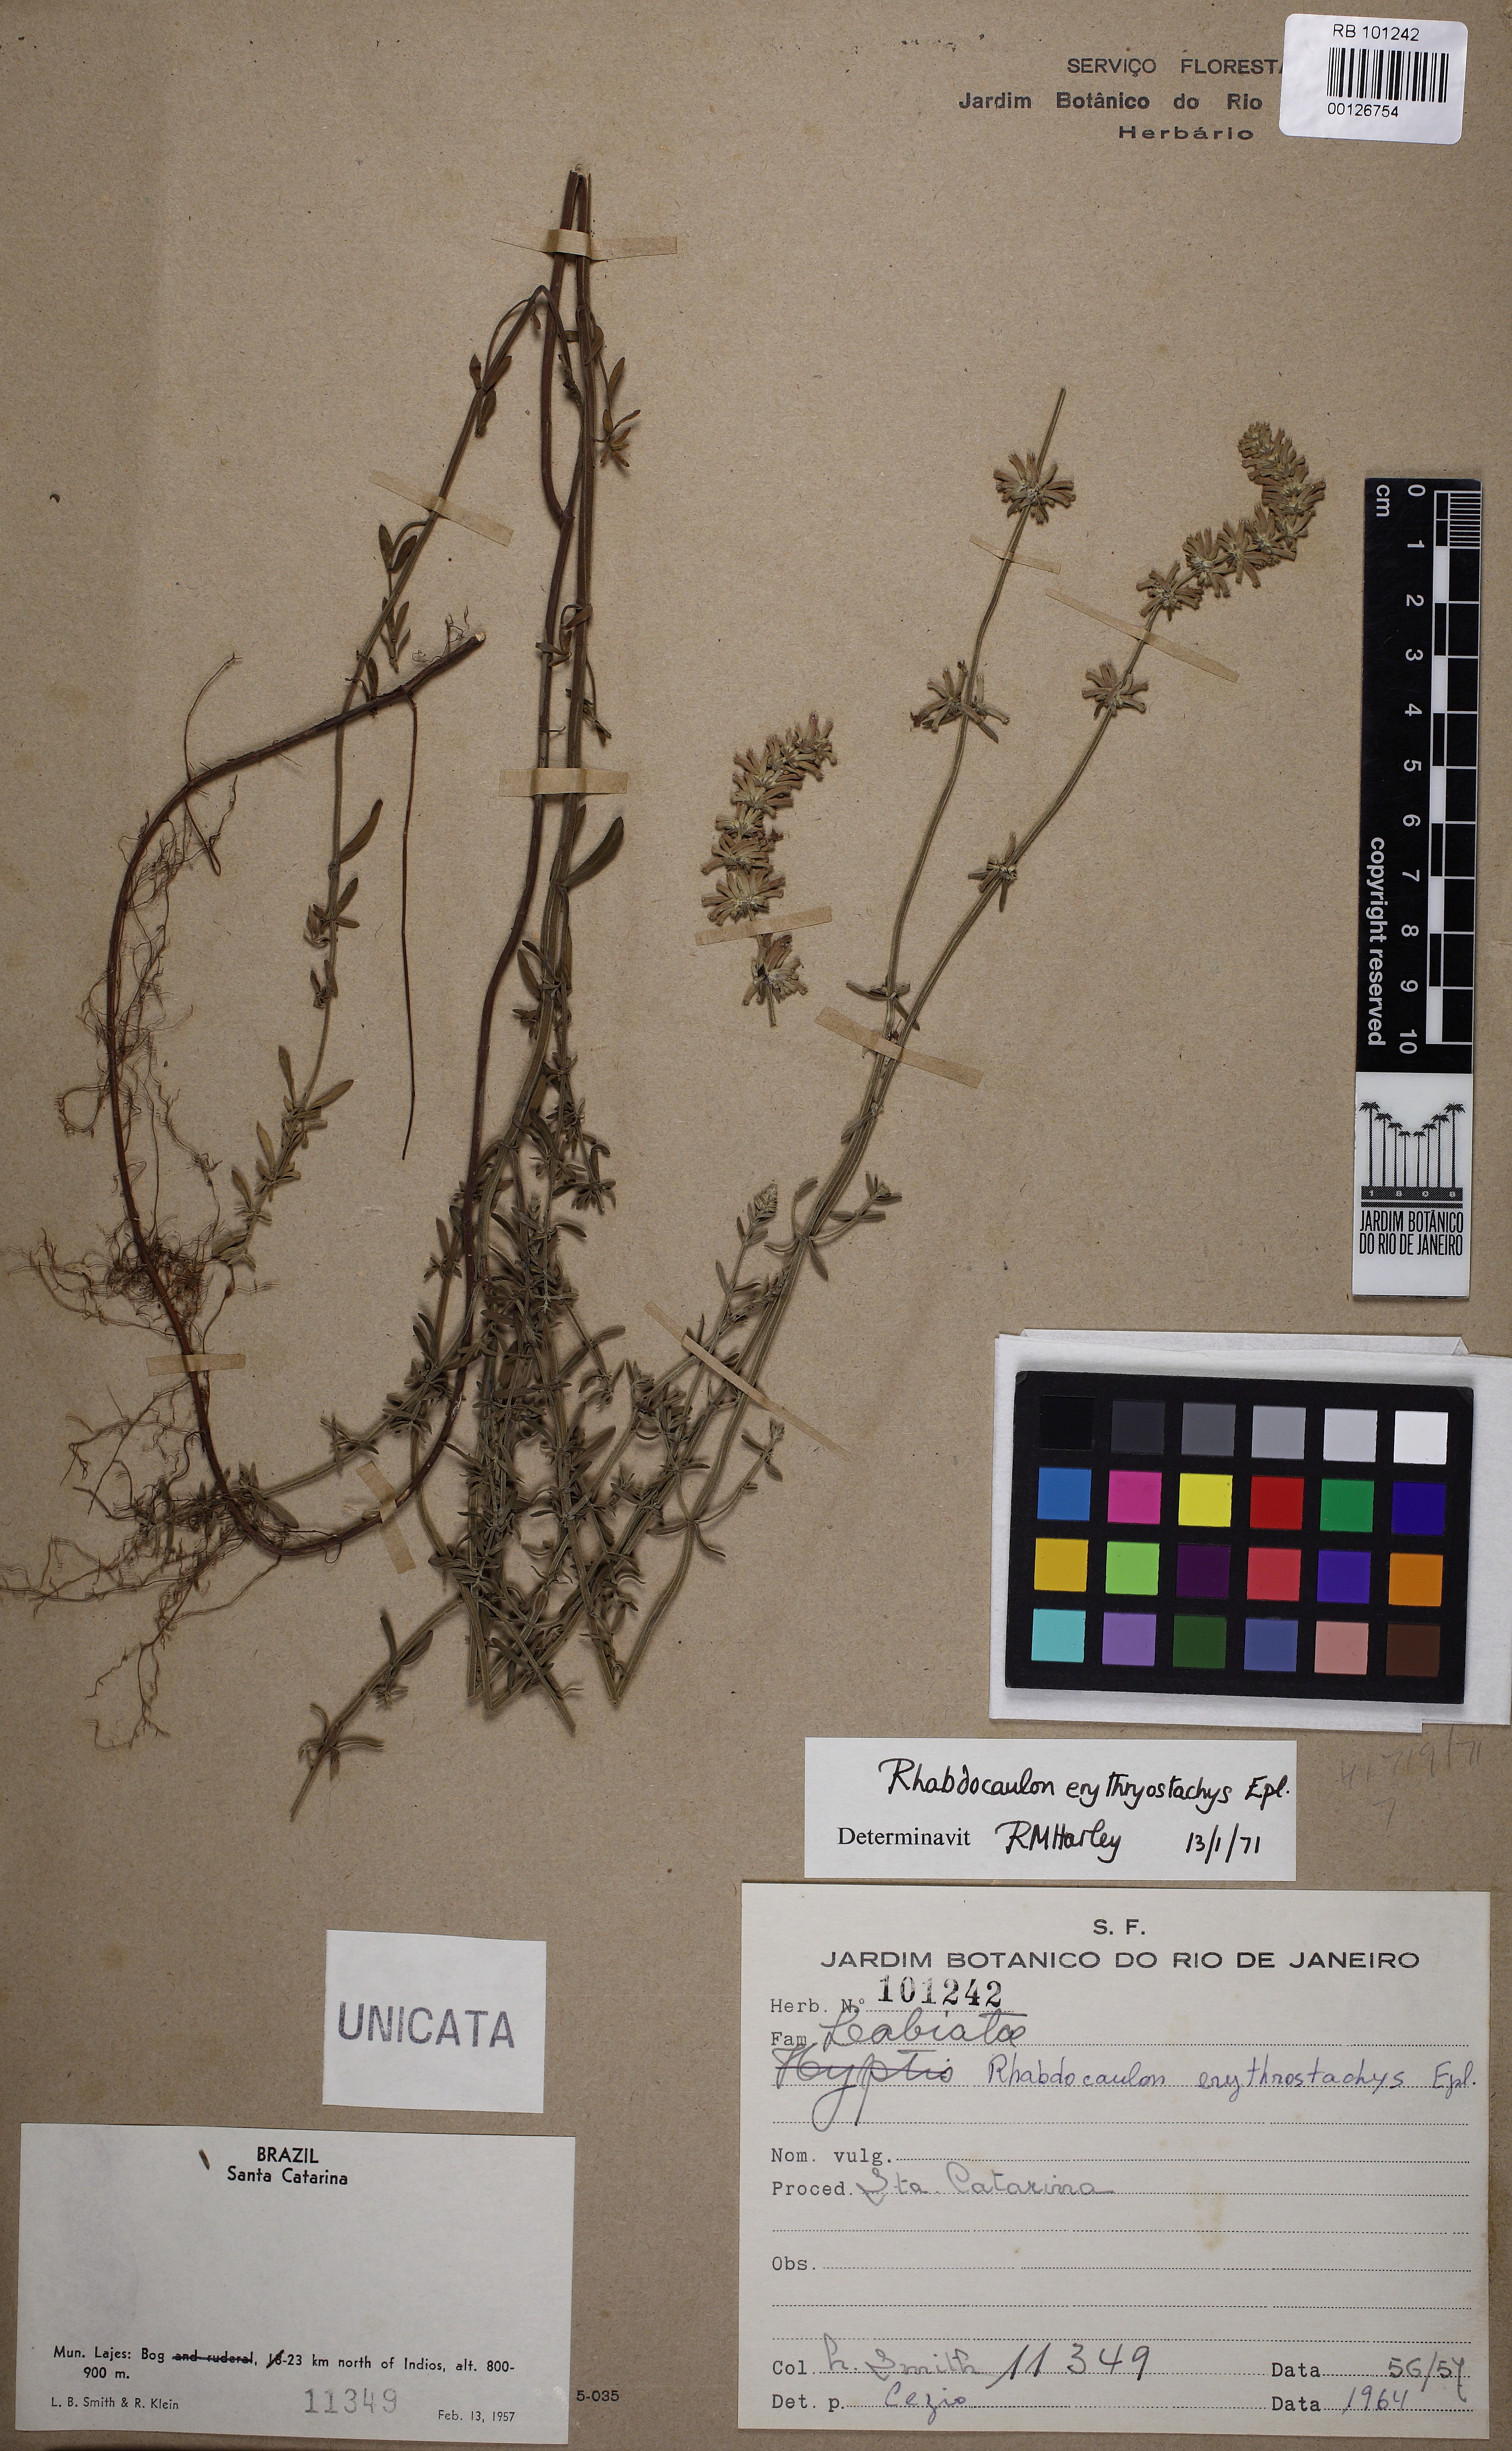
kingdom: Plantae
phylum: Tracheophyta
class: Magnoliopsida
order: Lamiales
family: Lamiaceae
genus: Rhabdocaulon
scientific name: Rhabdocaulon erythrostachys
